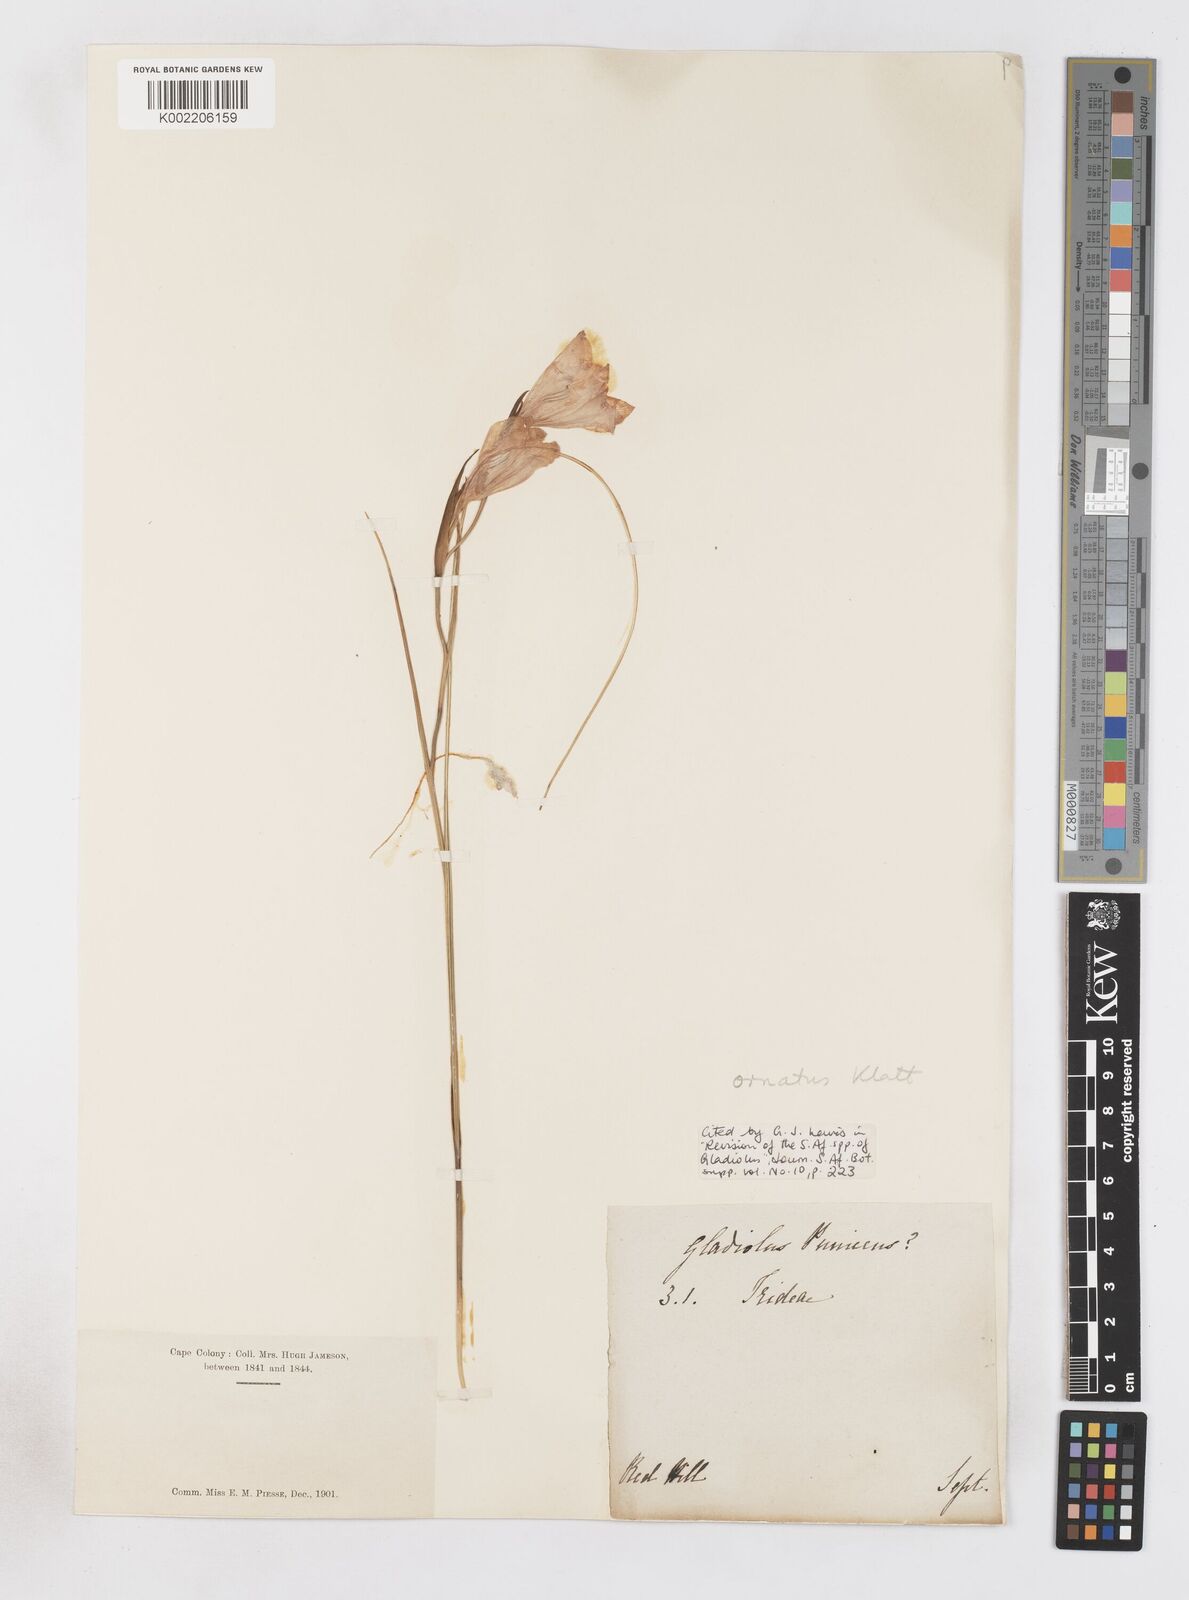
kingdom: Plantae
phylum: Tracheophyta
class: Liliopsida
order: Asparagales
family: Iridaceae
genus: Gladiolus
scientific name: Gladiolus ornatus
